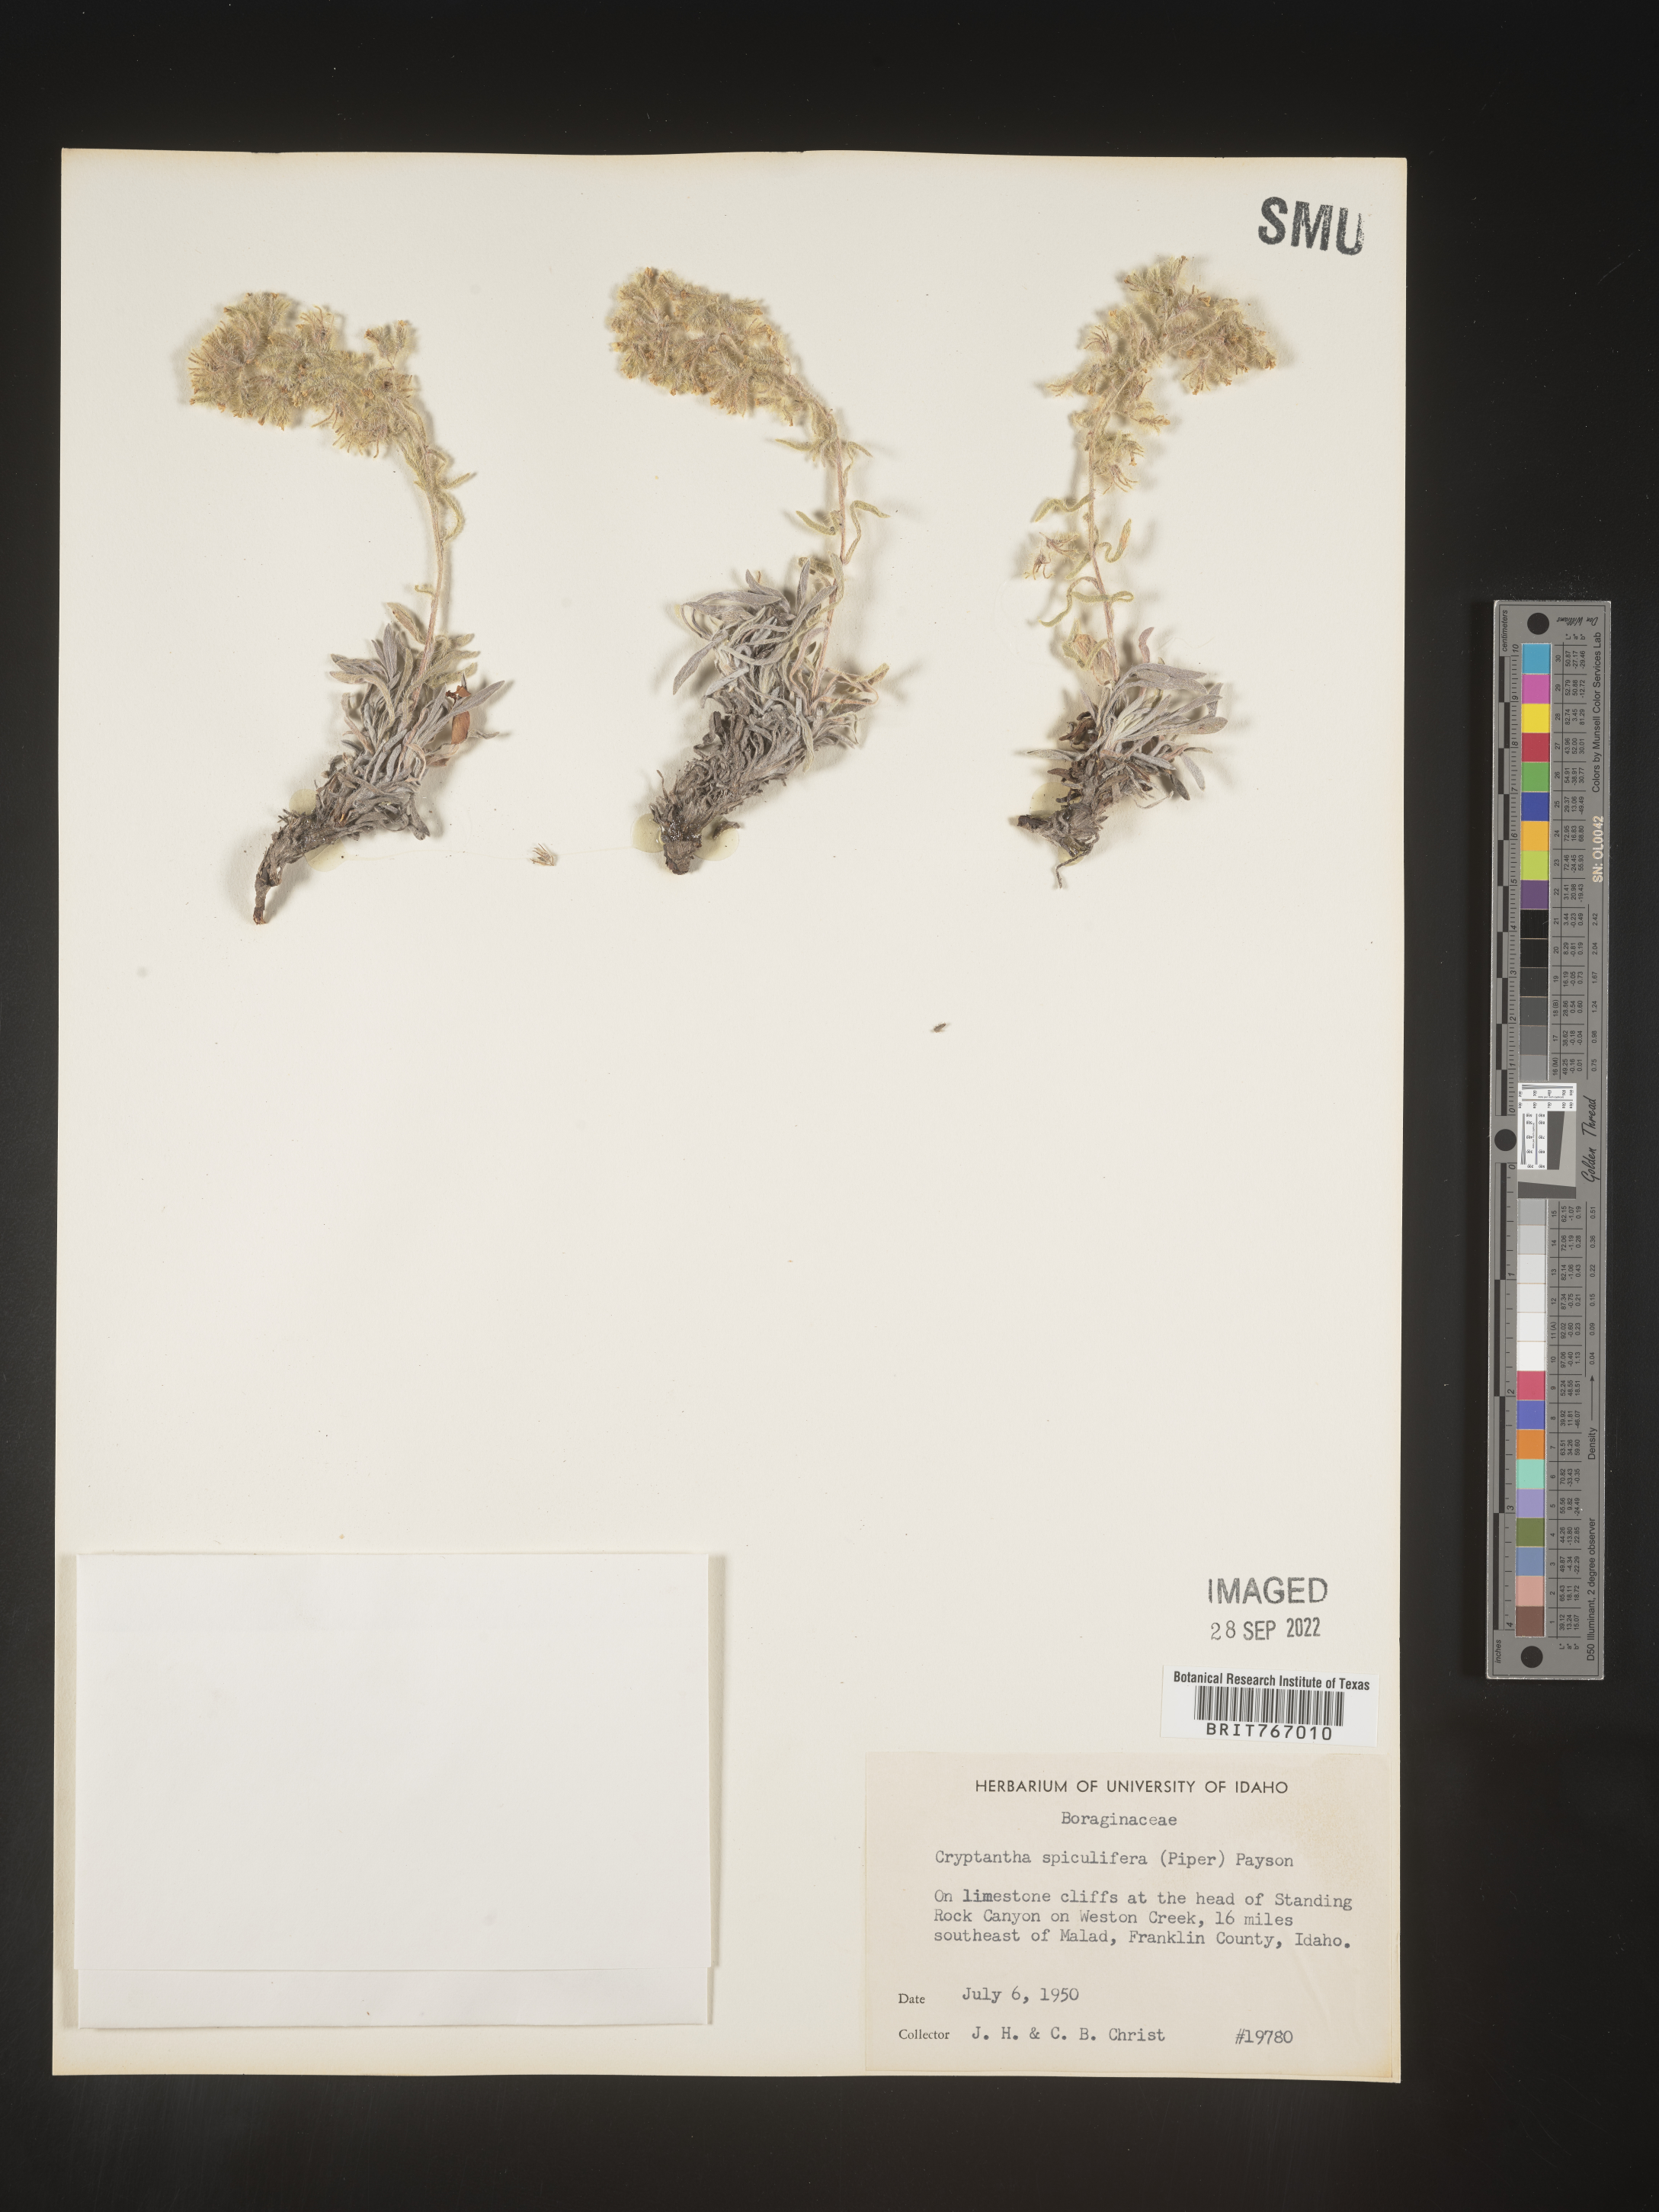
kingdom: Plantae
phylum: Tracheophyta
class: Magnoliopsida
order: Boraginales
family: Boraginaceae
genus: Cryptantha
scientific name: Cryptantha
